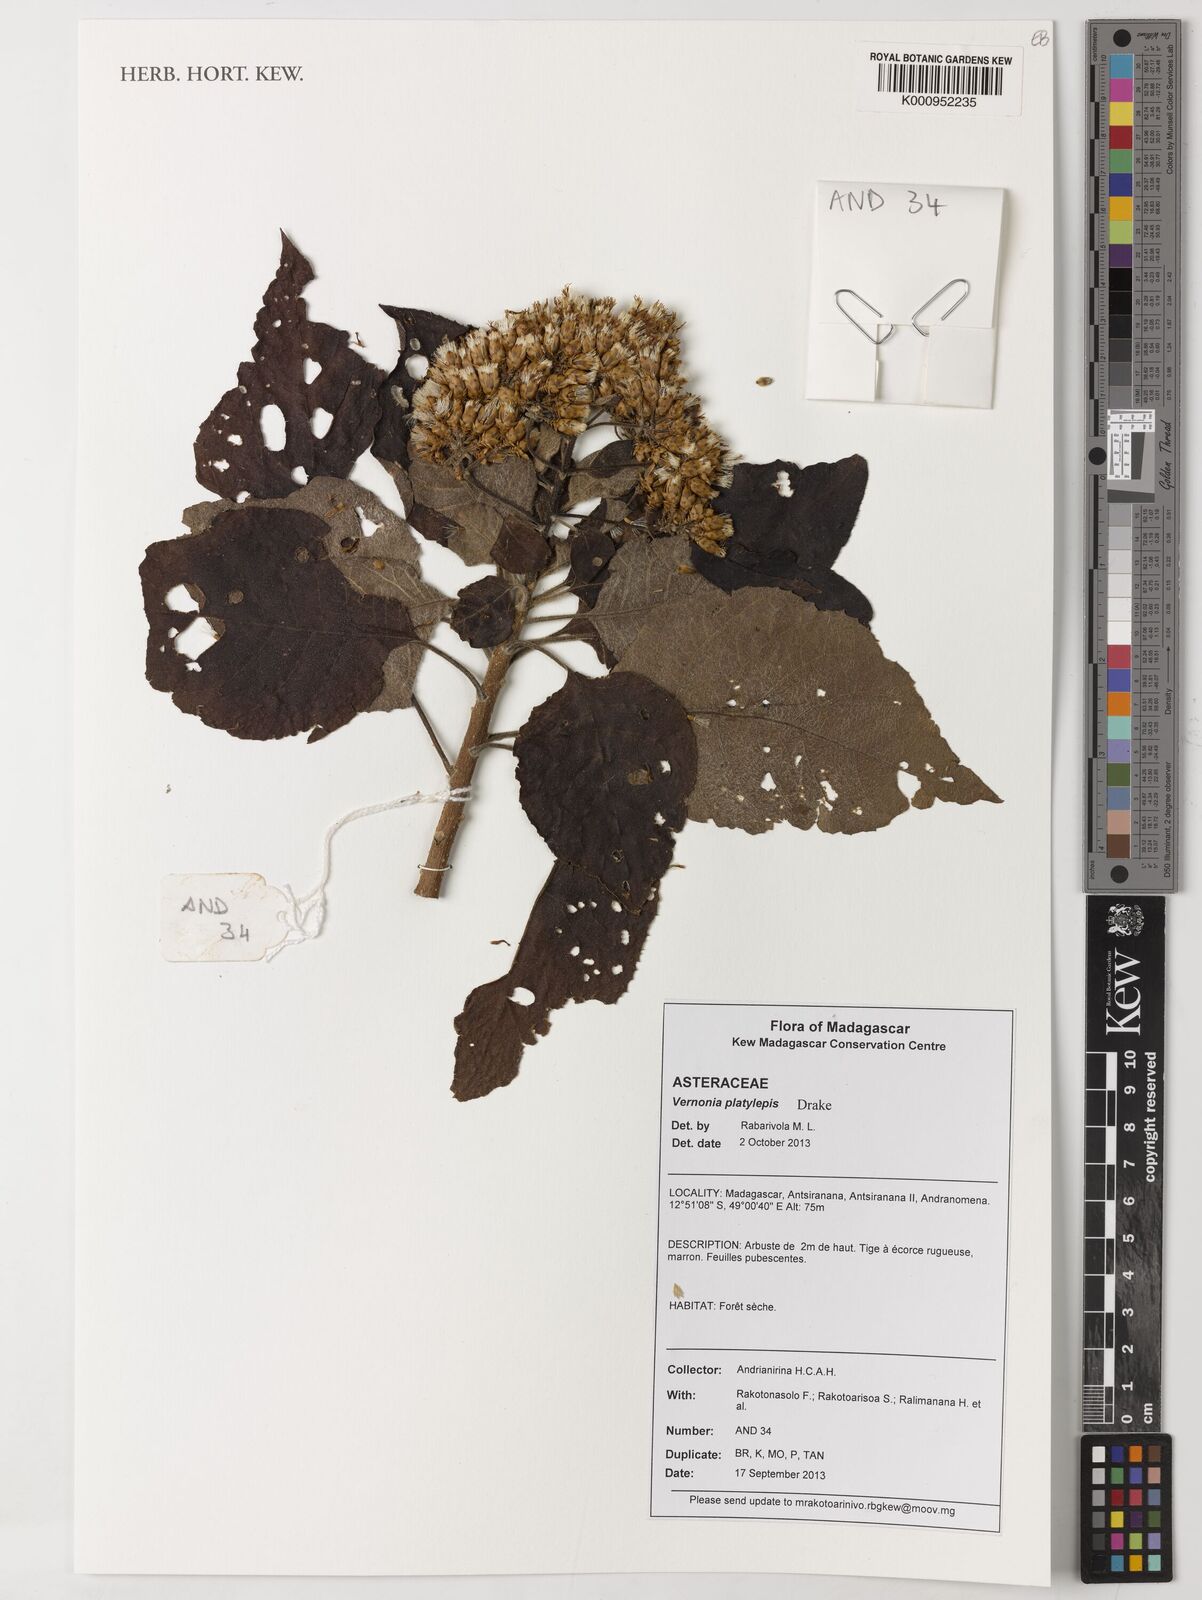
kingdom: Plantae
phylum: Tracheophyta
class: Magnoliopsida
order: Asterales
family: Asteraceae
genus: Vernonia
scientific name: Vernonia platylepis
